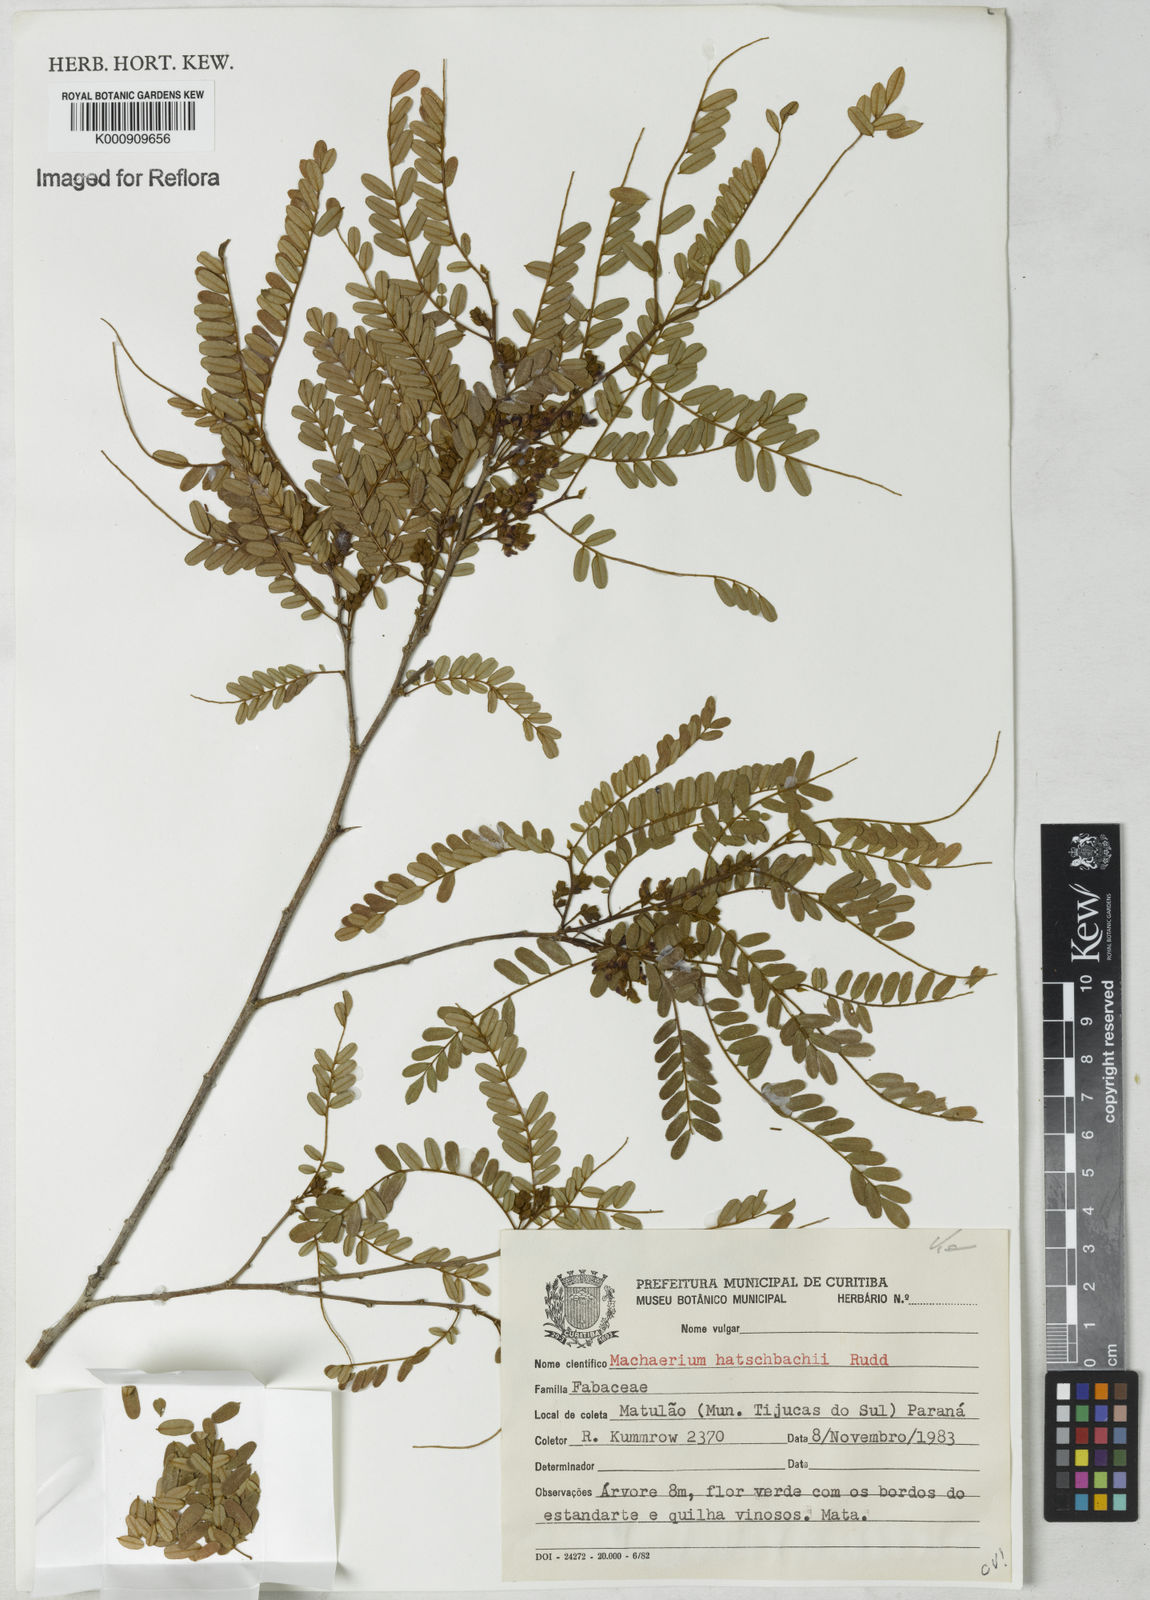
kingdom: Plantae
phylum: Tracheophyta
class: Magnoliopsida
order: Fabales
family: Fabaceae
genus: Machaerium
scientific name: Machaerium hatschbachii
